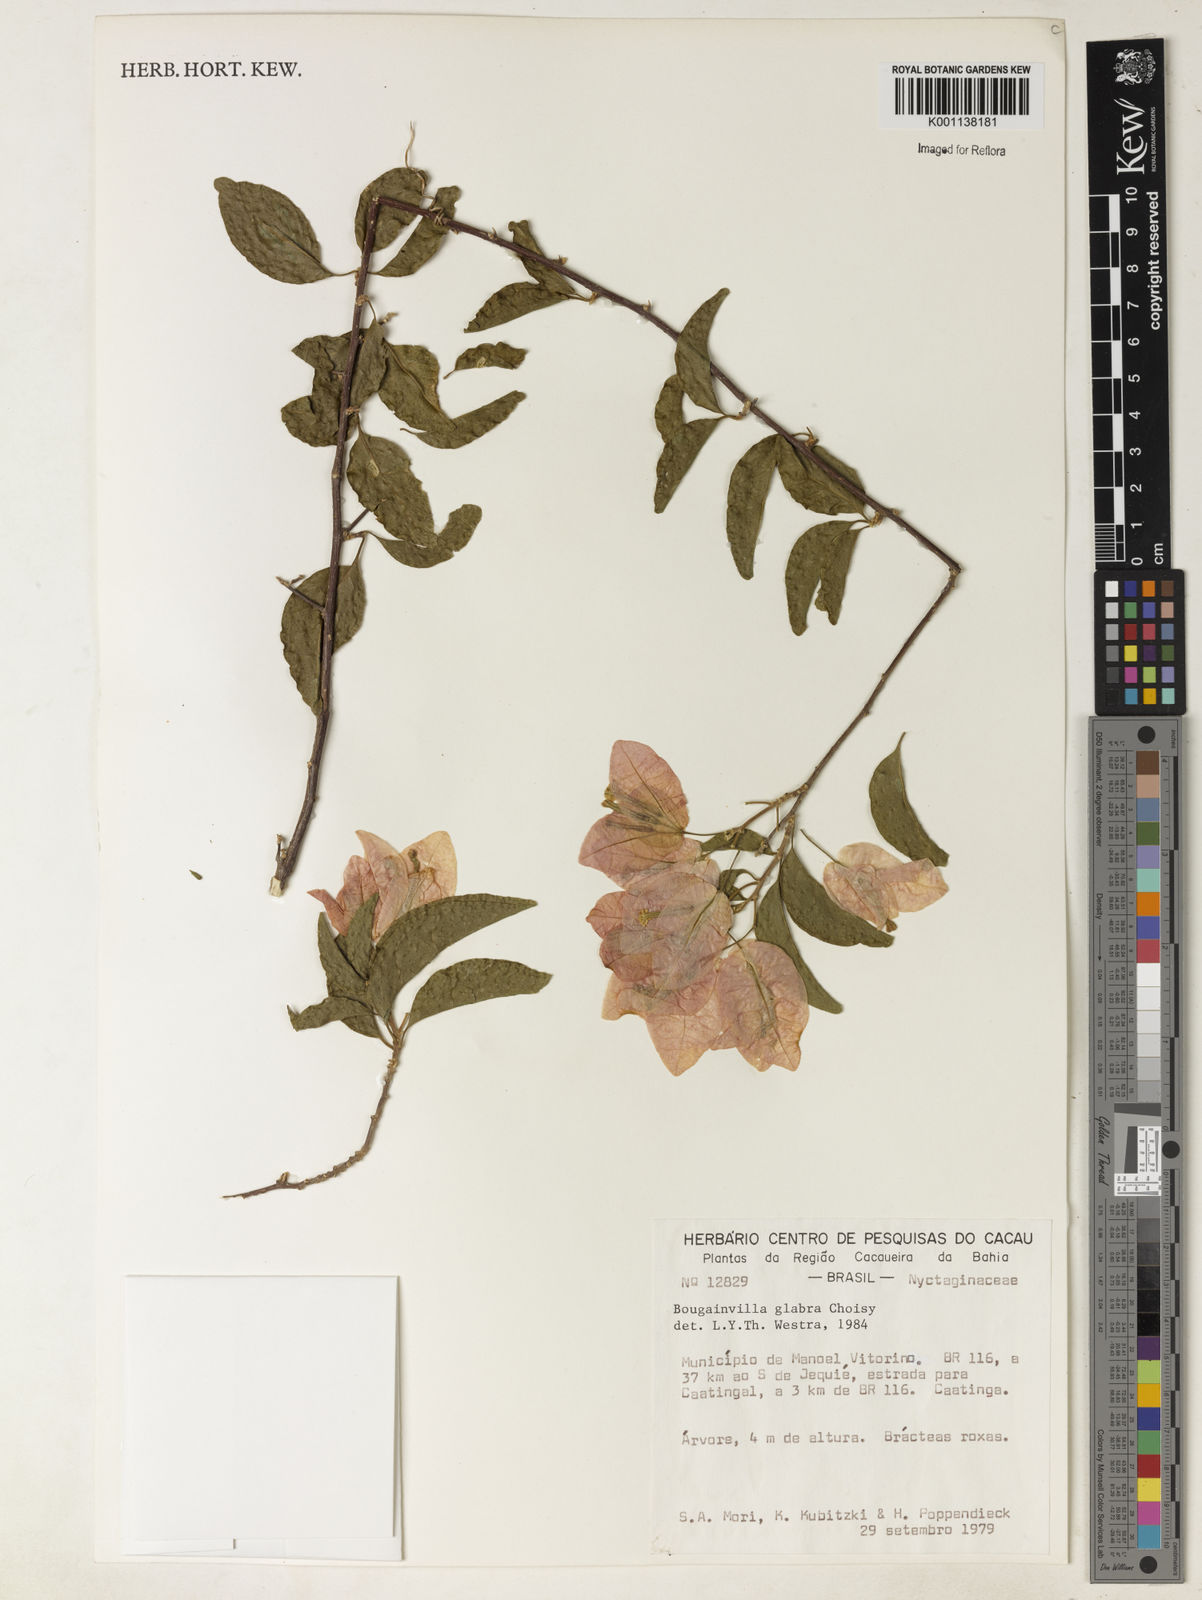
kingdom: Plantae
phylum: Tracheophyta
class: Magnoliopsida
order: Caryophyllales
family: Nyctaginaceae
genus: Bougainvillea
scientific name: Bougainvillea glabra
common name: Paperflower
